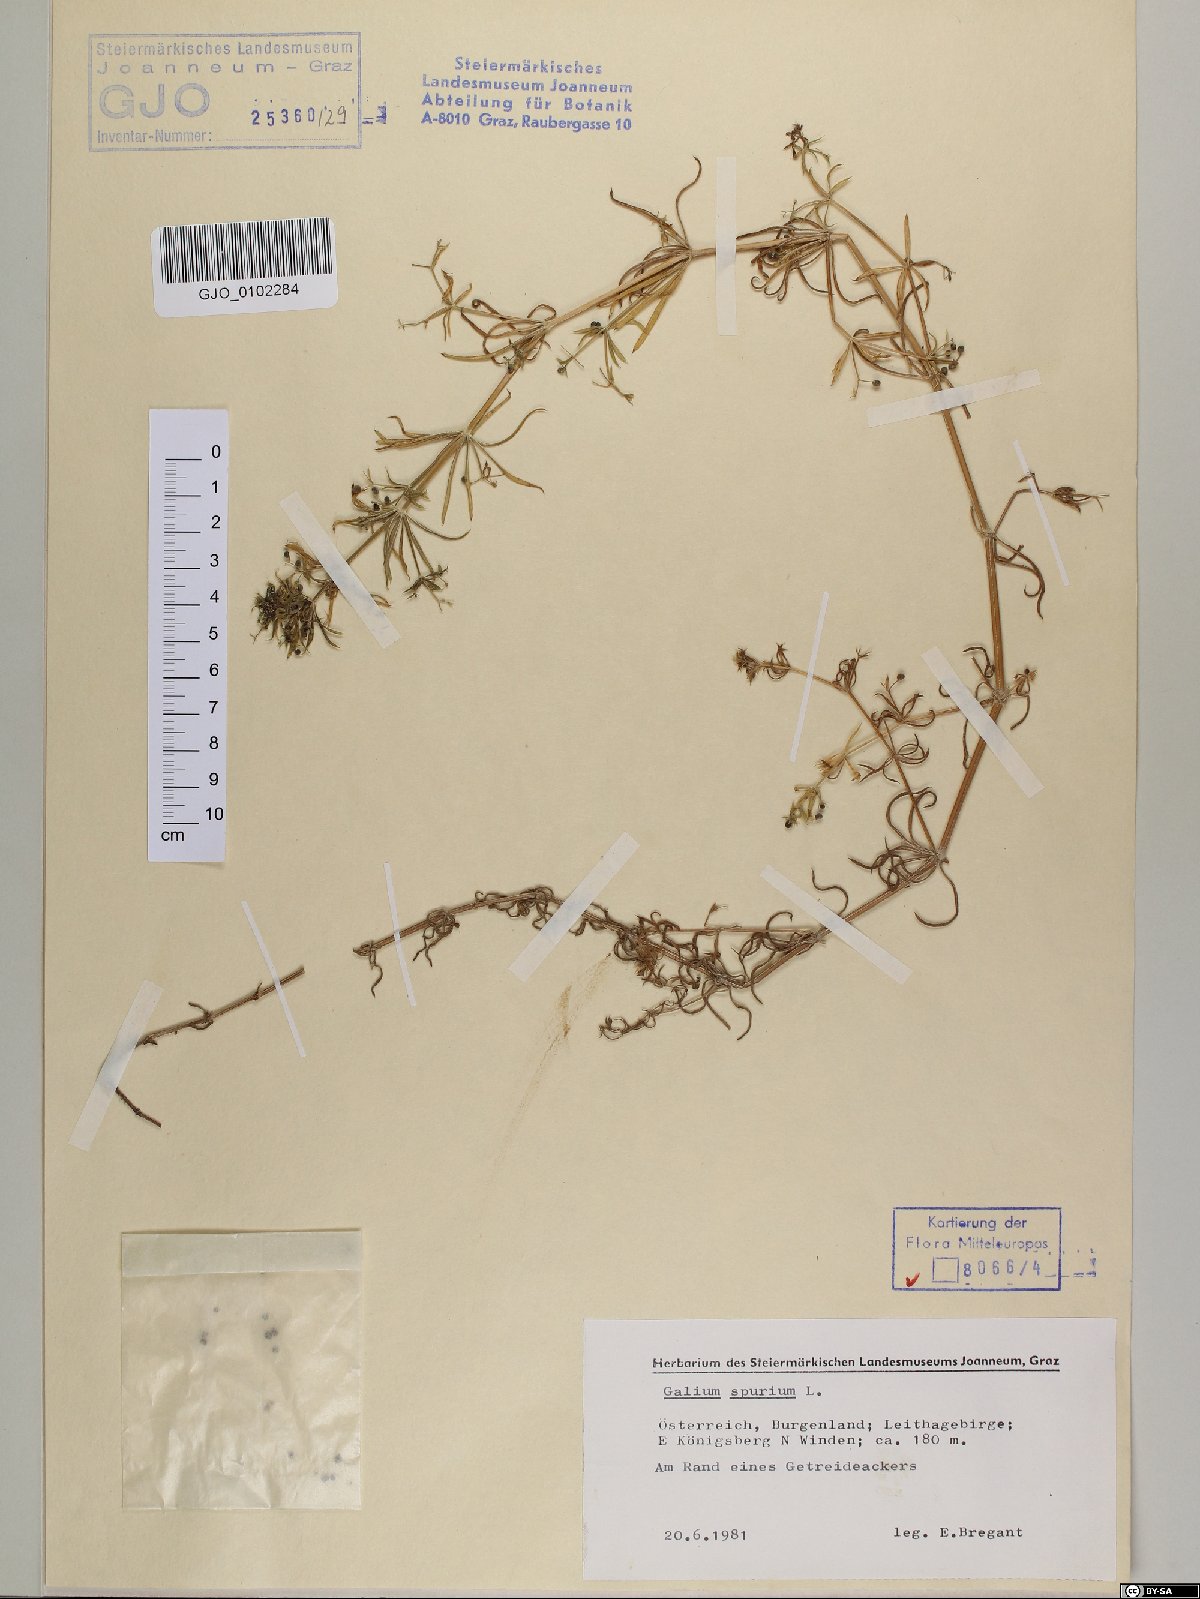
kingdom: Plantae
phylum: Tracheophyta
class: Magnoliopsida
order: Gentianales
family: Rubiaceae
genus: Galium
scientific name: Galium spurium
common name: False cleavers
